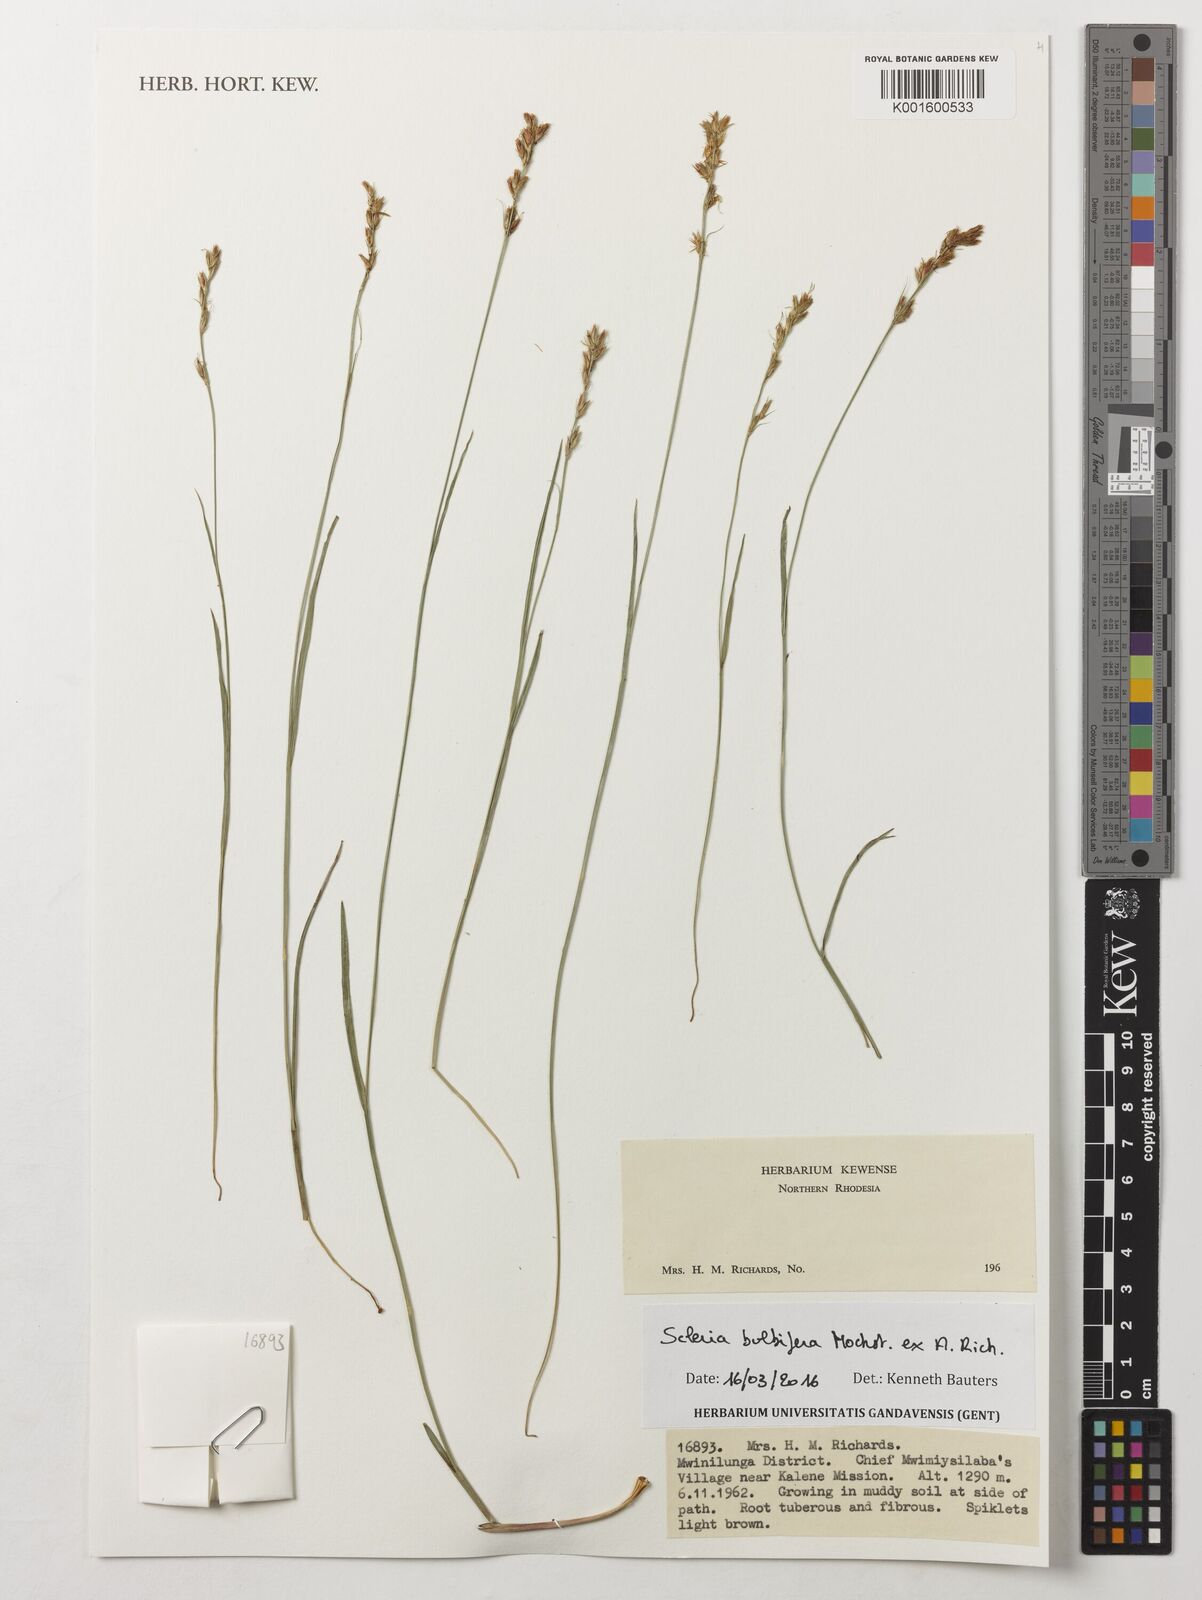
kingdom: Plantae
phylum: Tracheophyta
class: Liliopsida
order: Poales
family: Cyperaceae
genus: Scleria
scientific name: Scleria bulbifera
